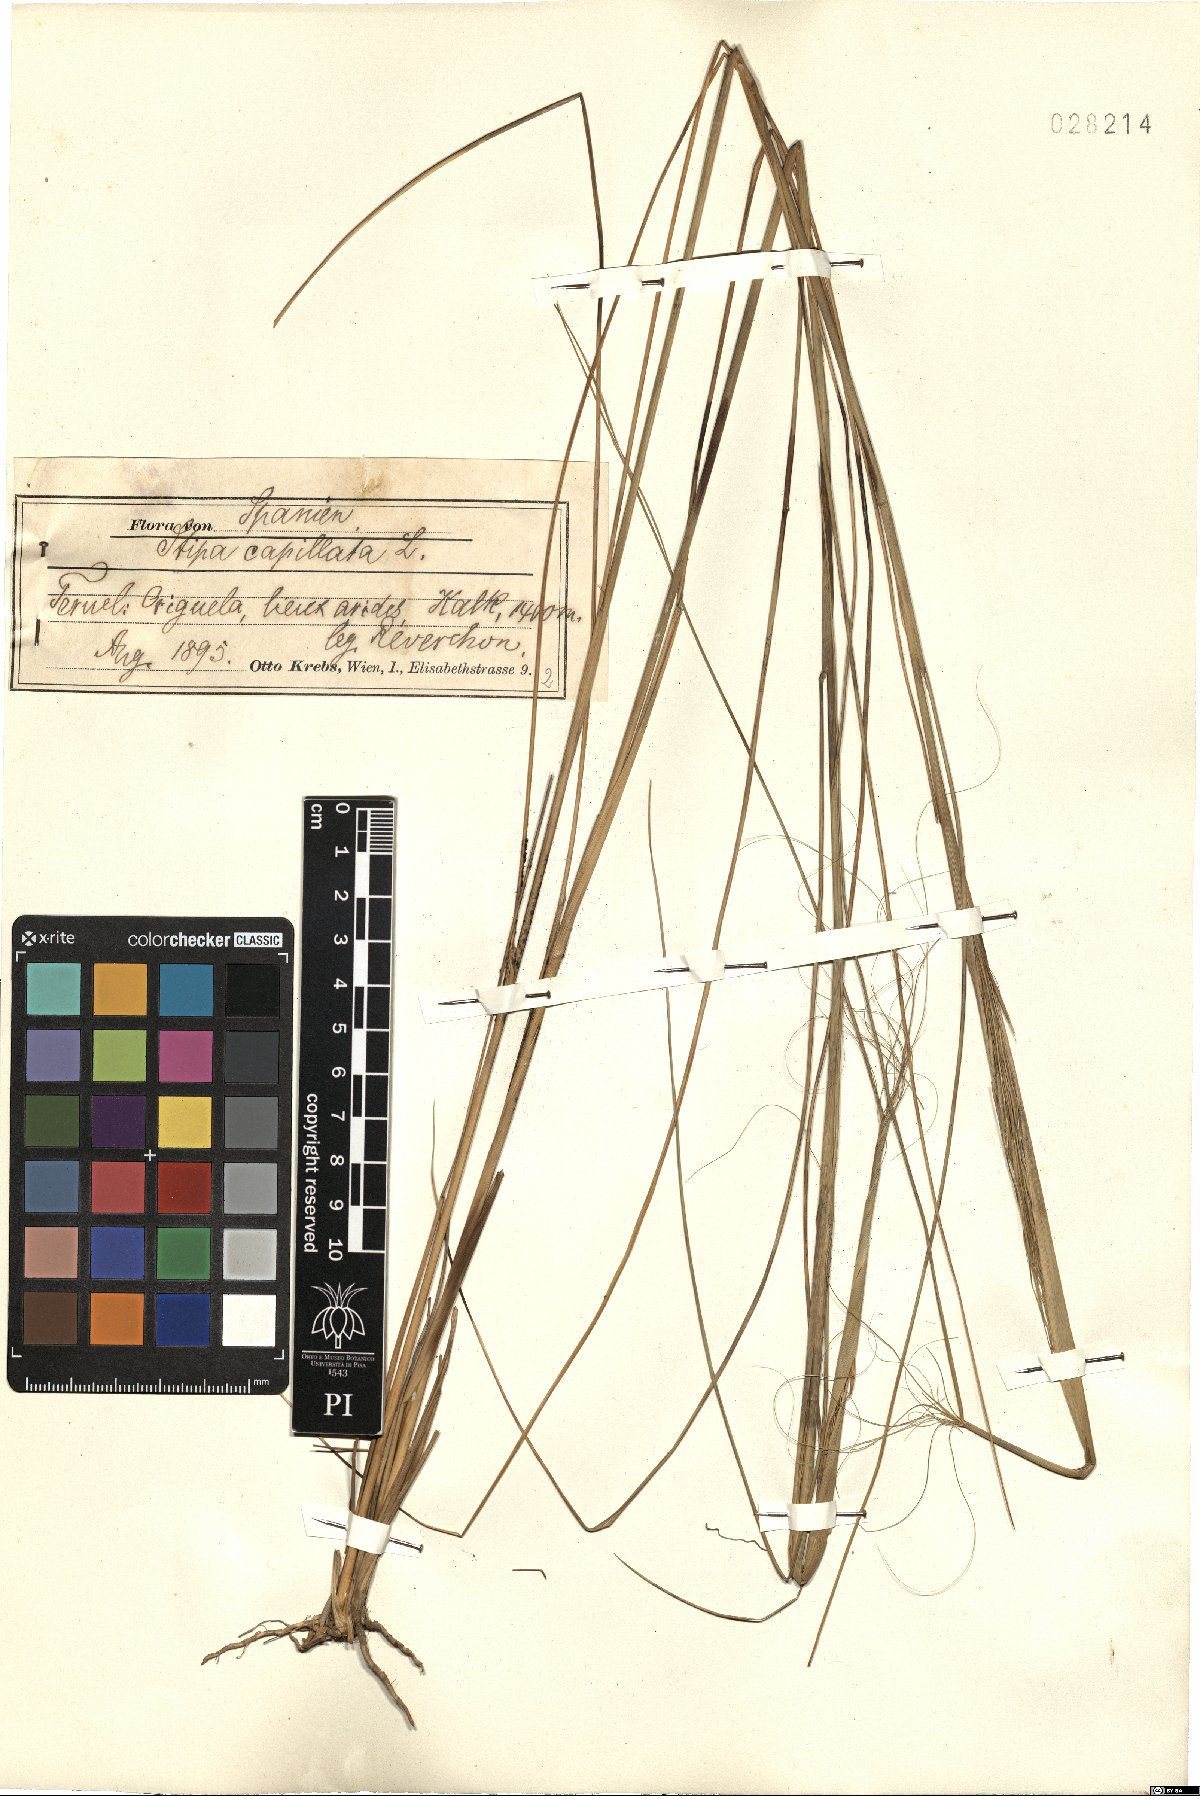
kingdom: Plantae
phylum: Tracheophyta
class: Liliopsida
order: Poales
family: Poaceae
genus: Stipa
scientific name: Stipa capillata
